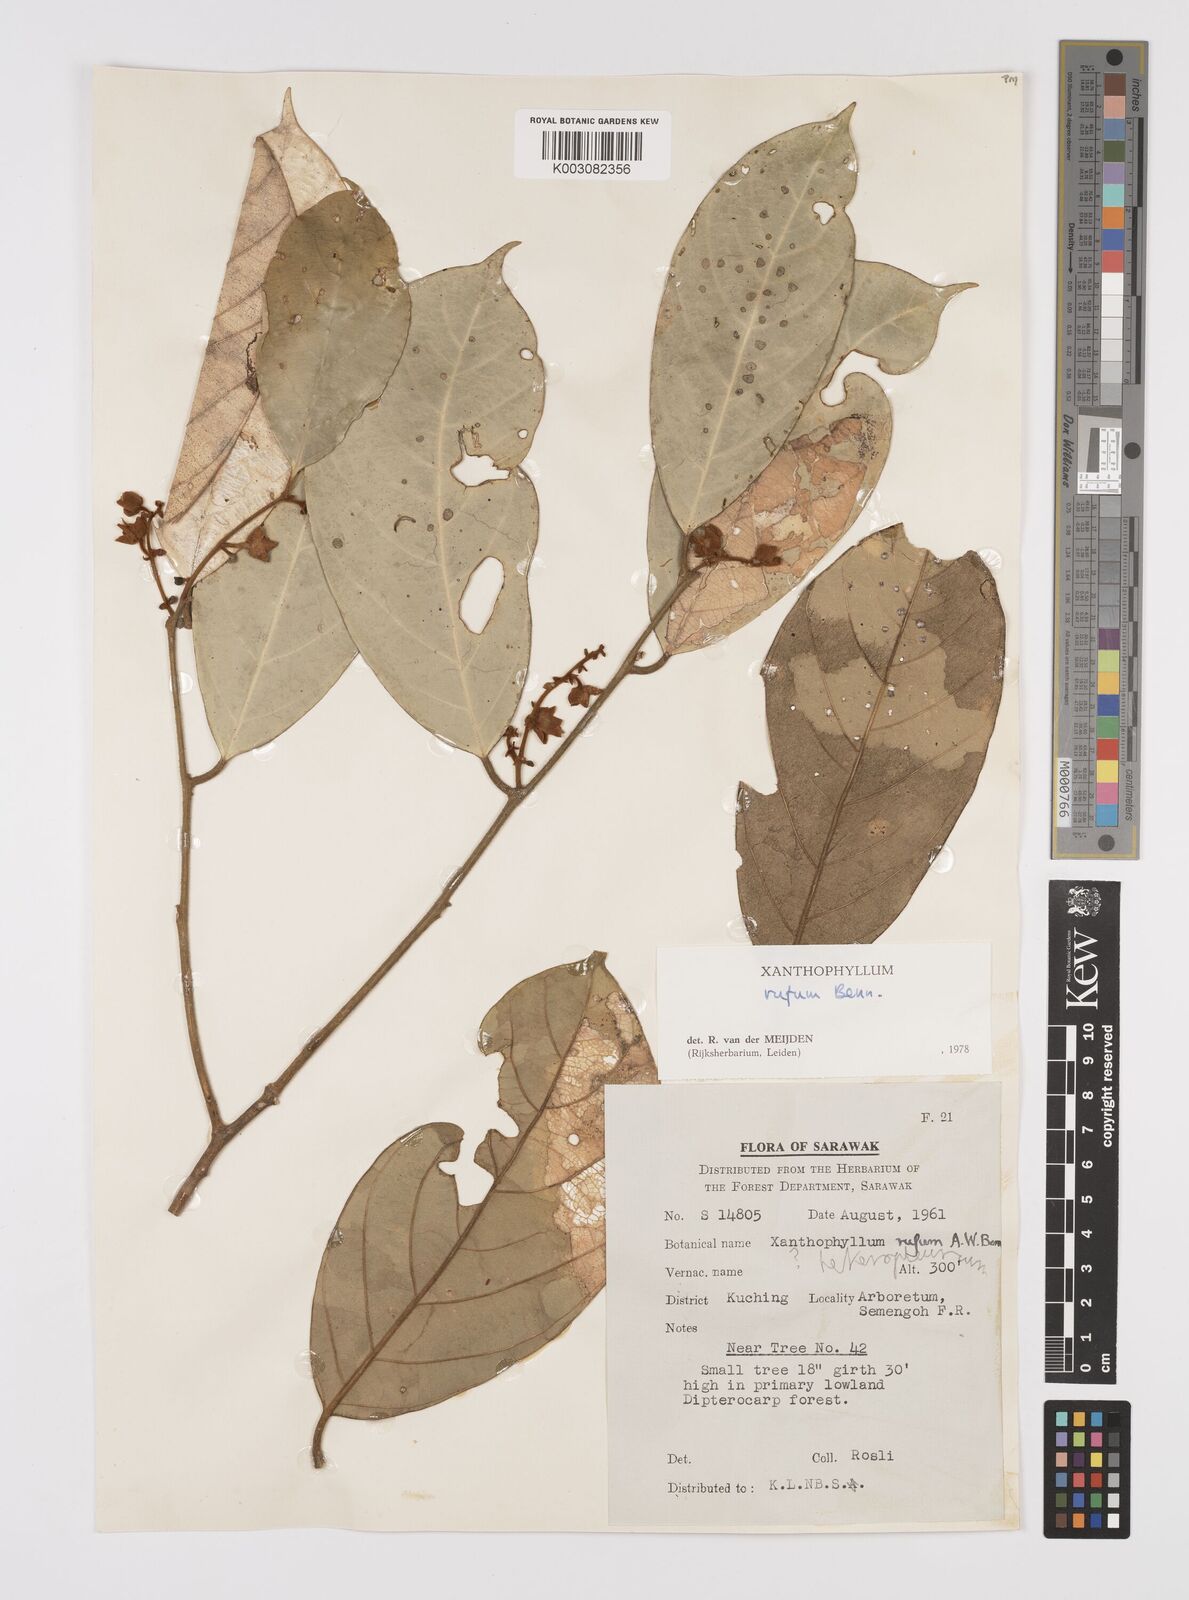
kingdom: Plantae
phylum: Tracheophyta
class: Magnoliopsida
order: Fabales
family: Polygalaceae
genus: Xanthophyllum
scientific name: Xanthophyllum rufum
